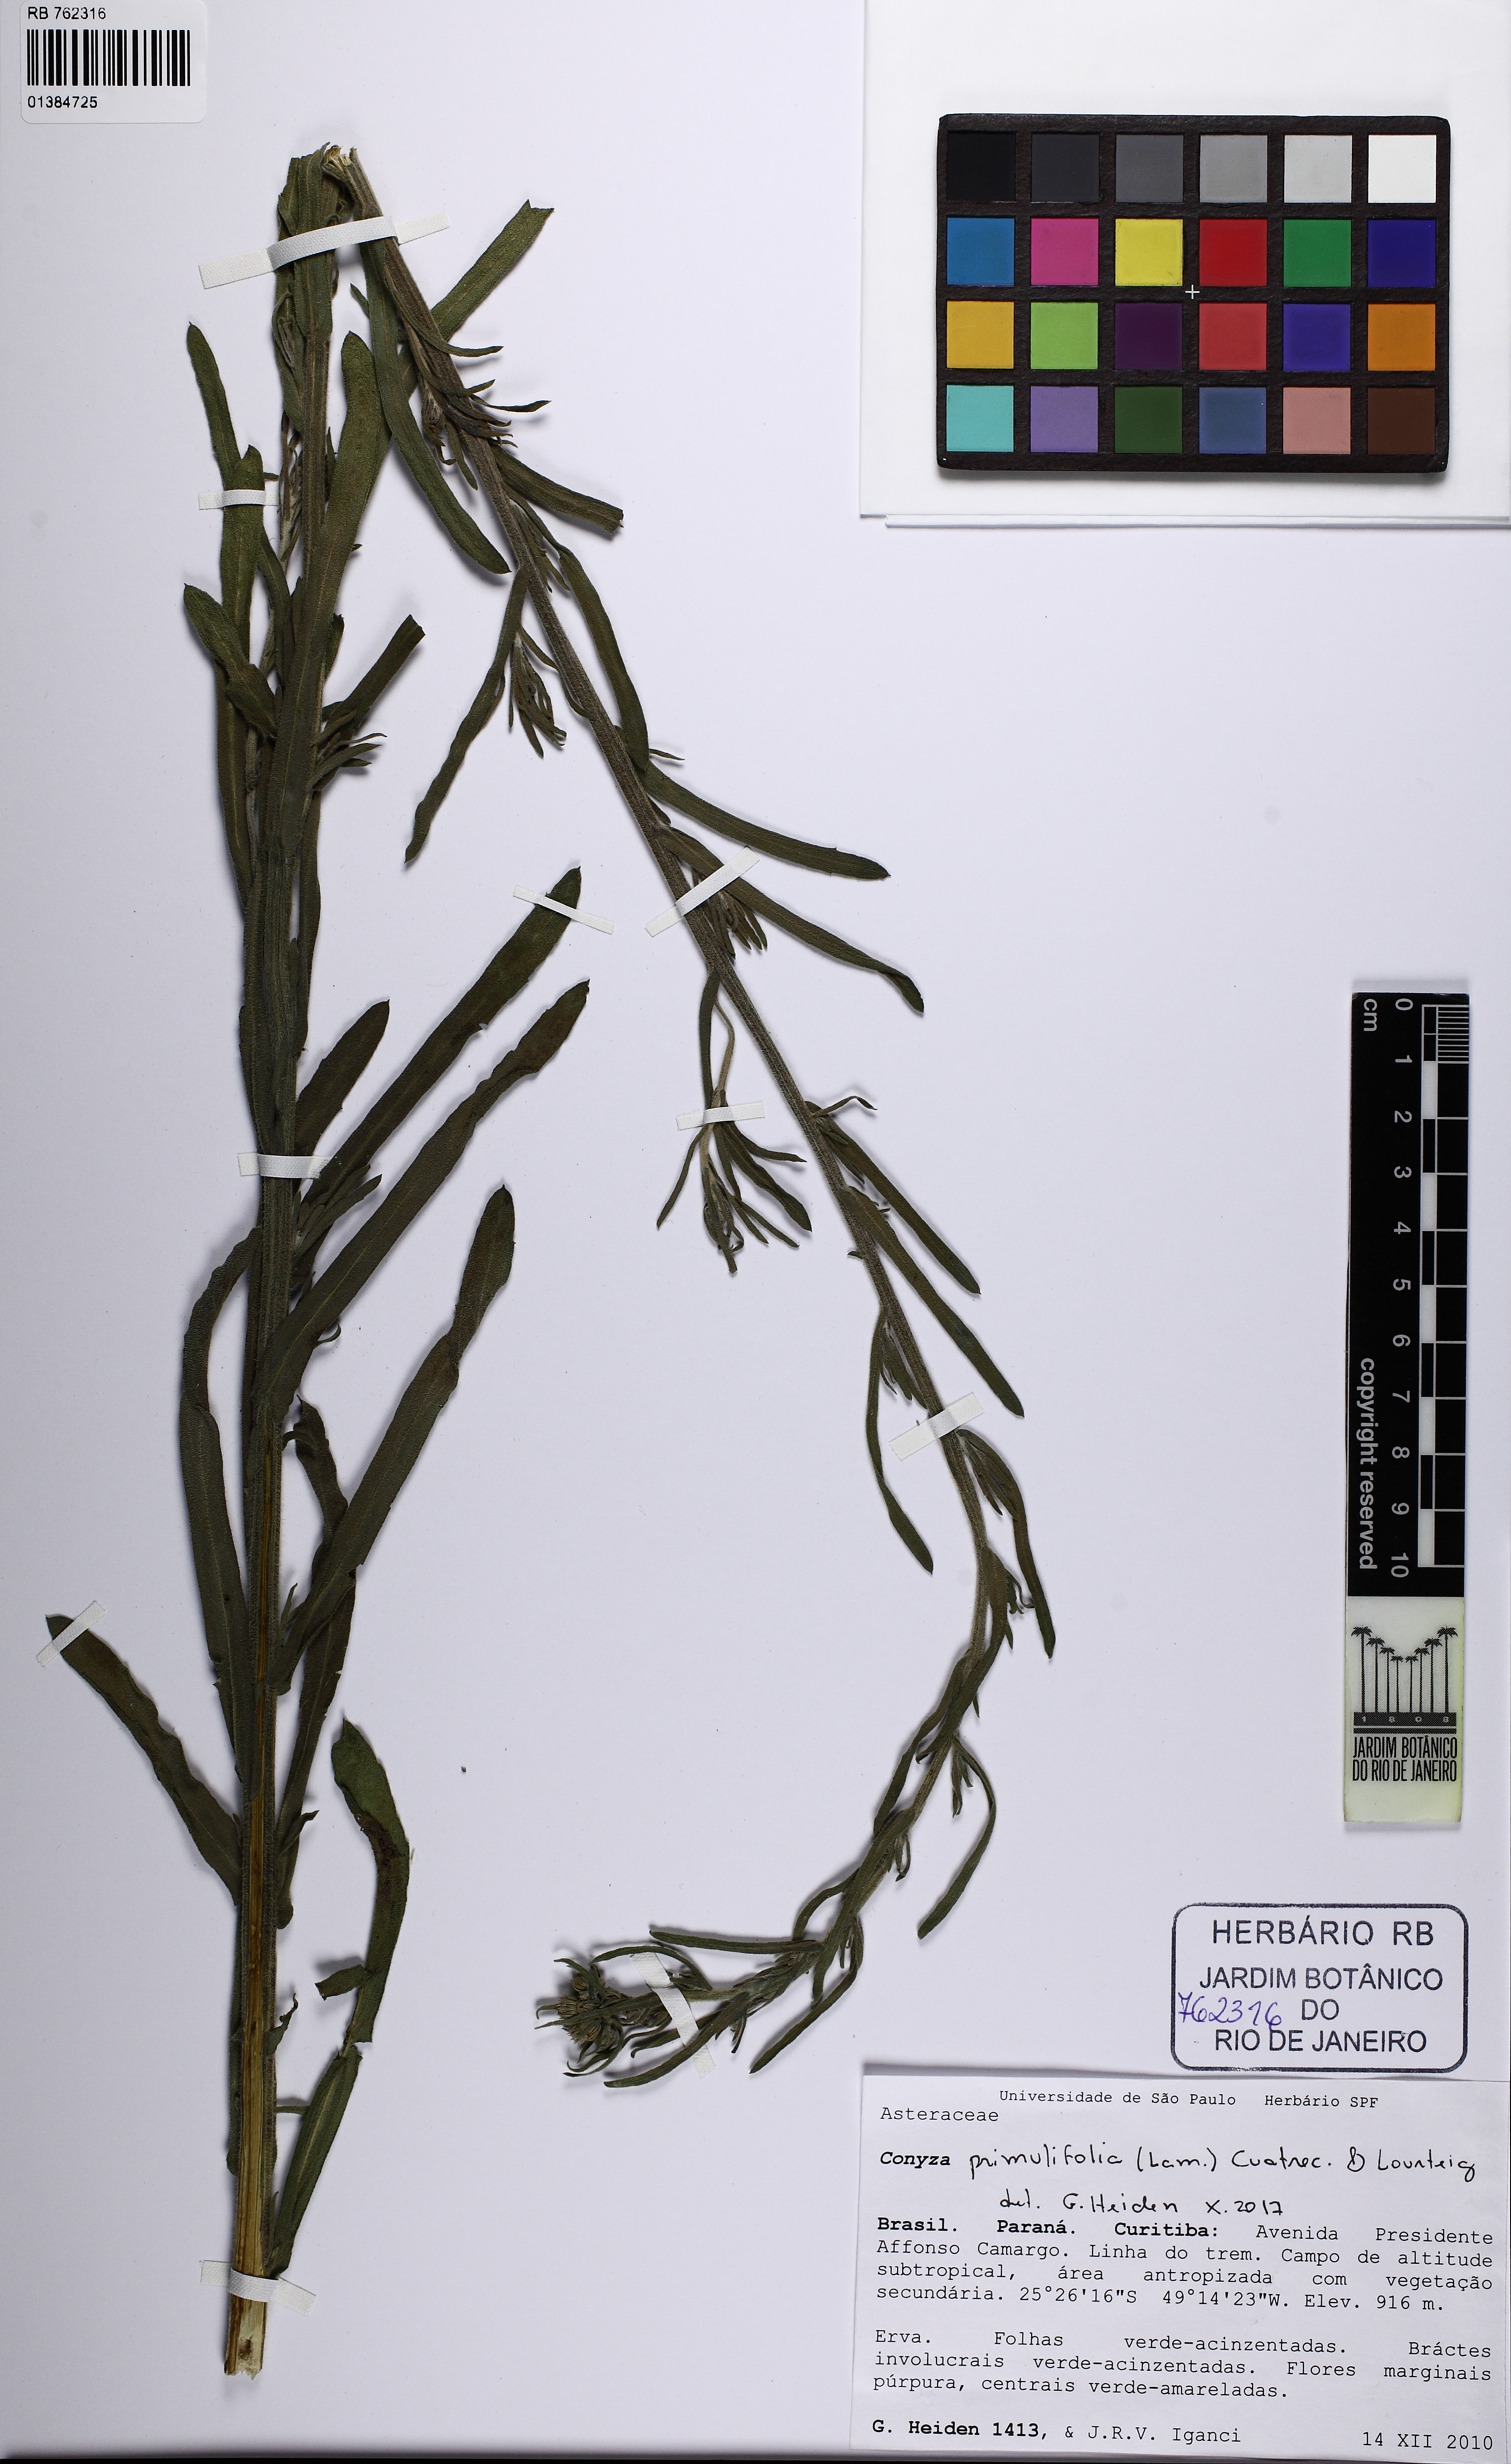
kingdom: Plantae
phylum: Tracheophyta
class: Magnoliopsida
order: Asterales
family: Asteraceae
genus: Erigeron
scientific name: Erigeron primulifolius
